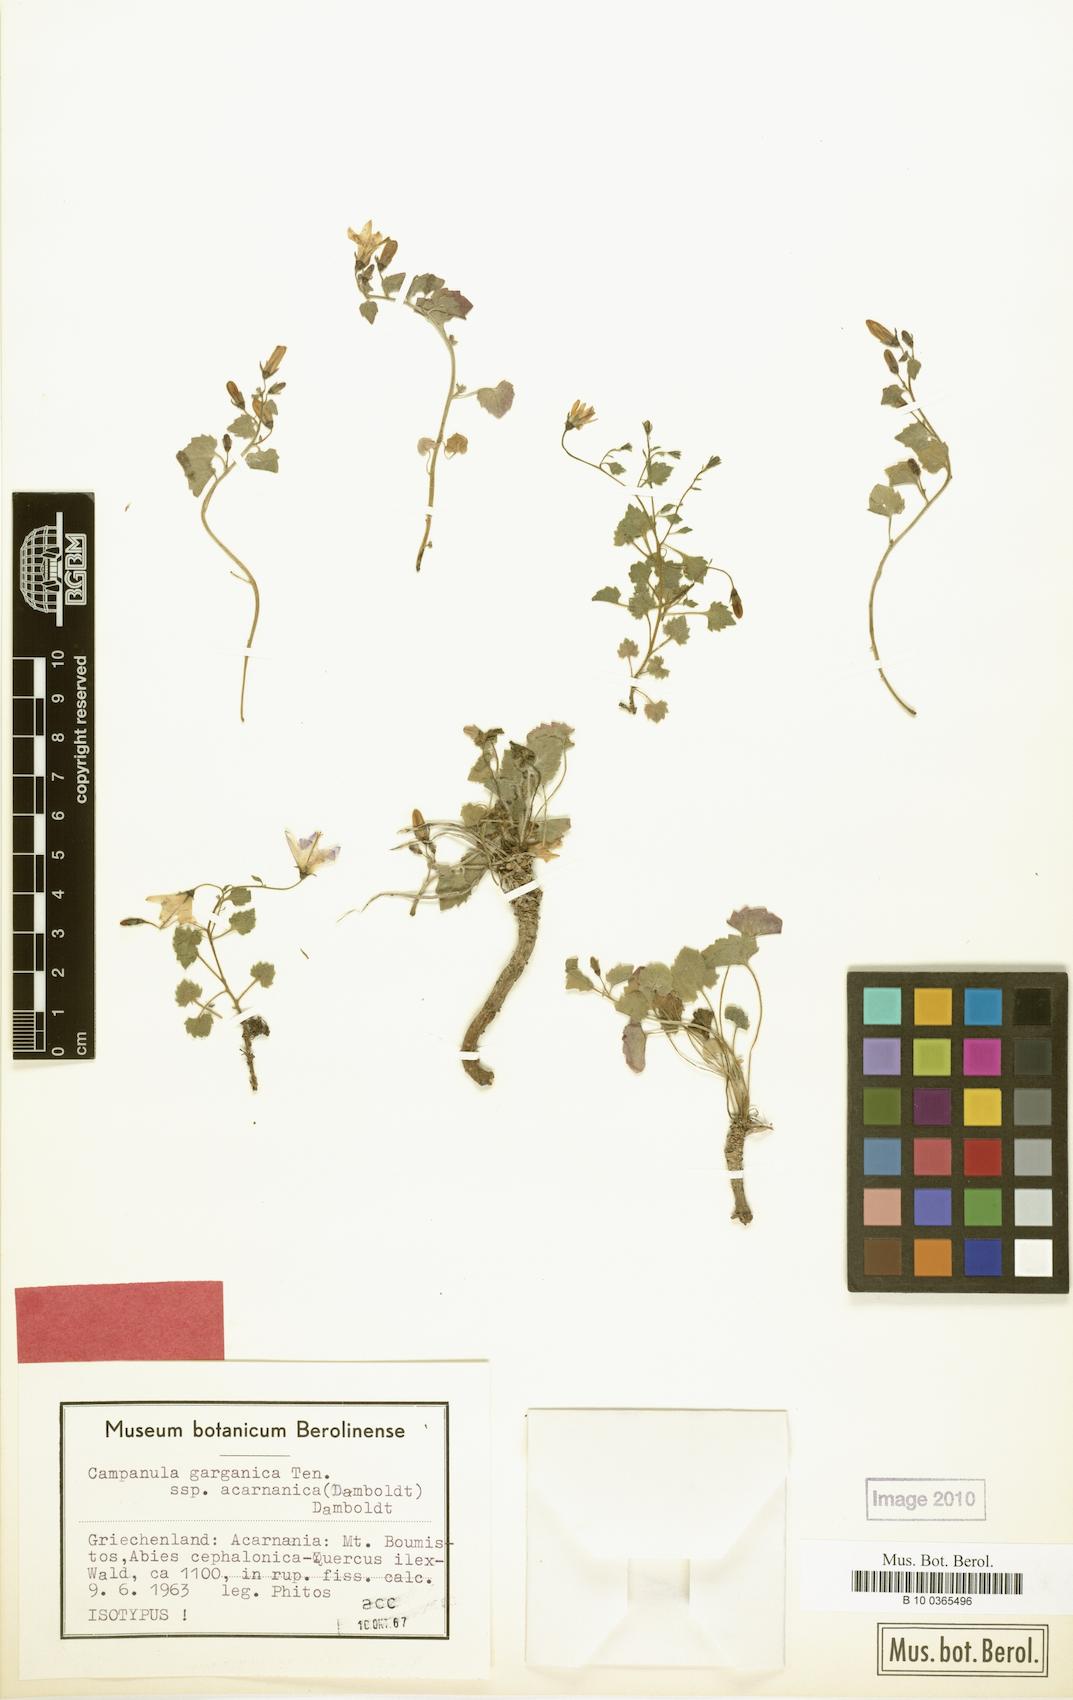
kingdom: Plantae
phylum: Tracheophyta
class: Magnoliopsida
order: Asterales
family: Campanulaceae
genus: Campanula
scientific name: Campanula garganica
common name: Adriatic bellflower
